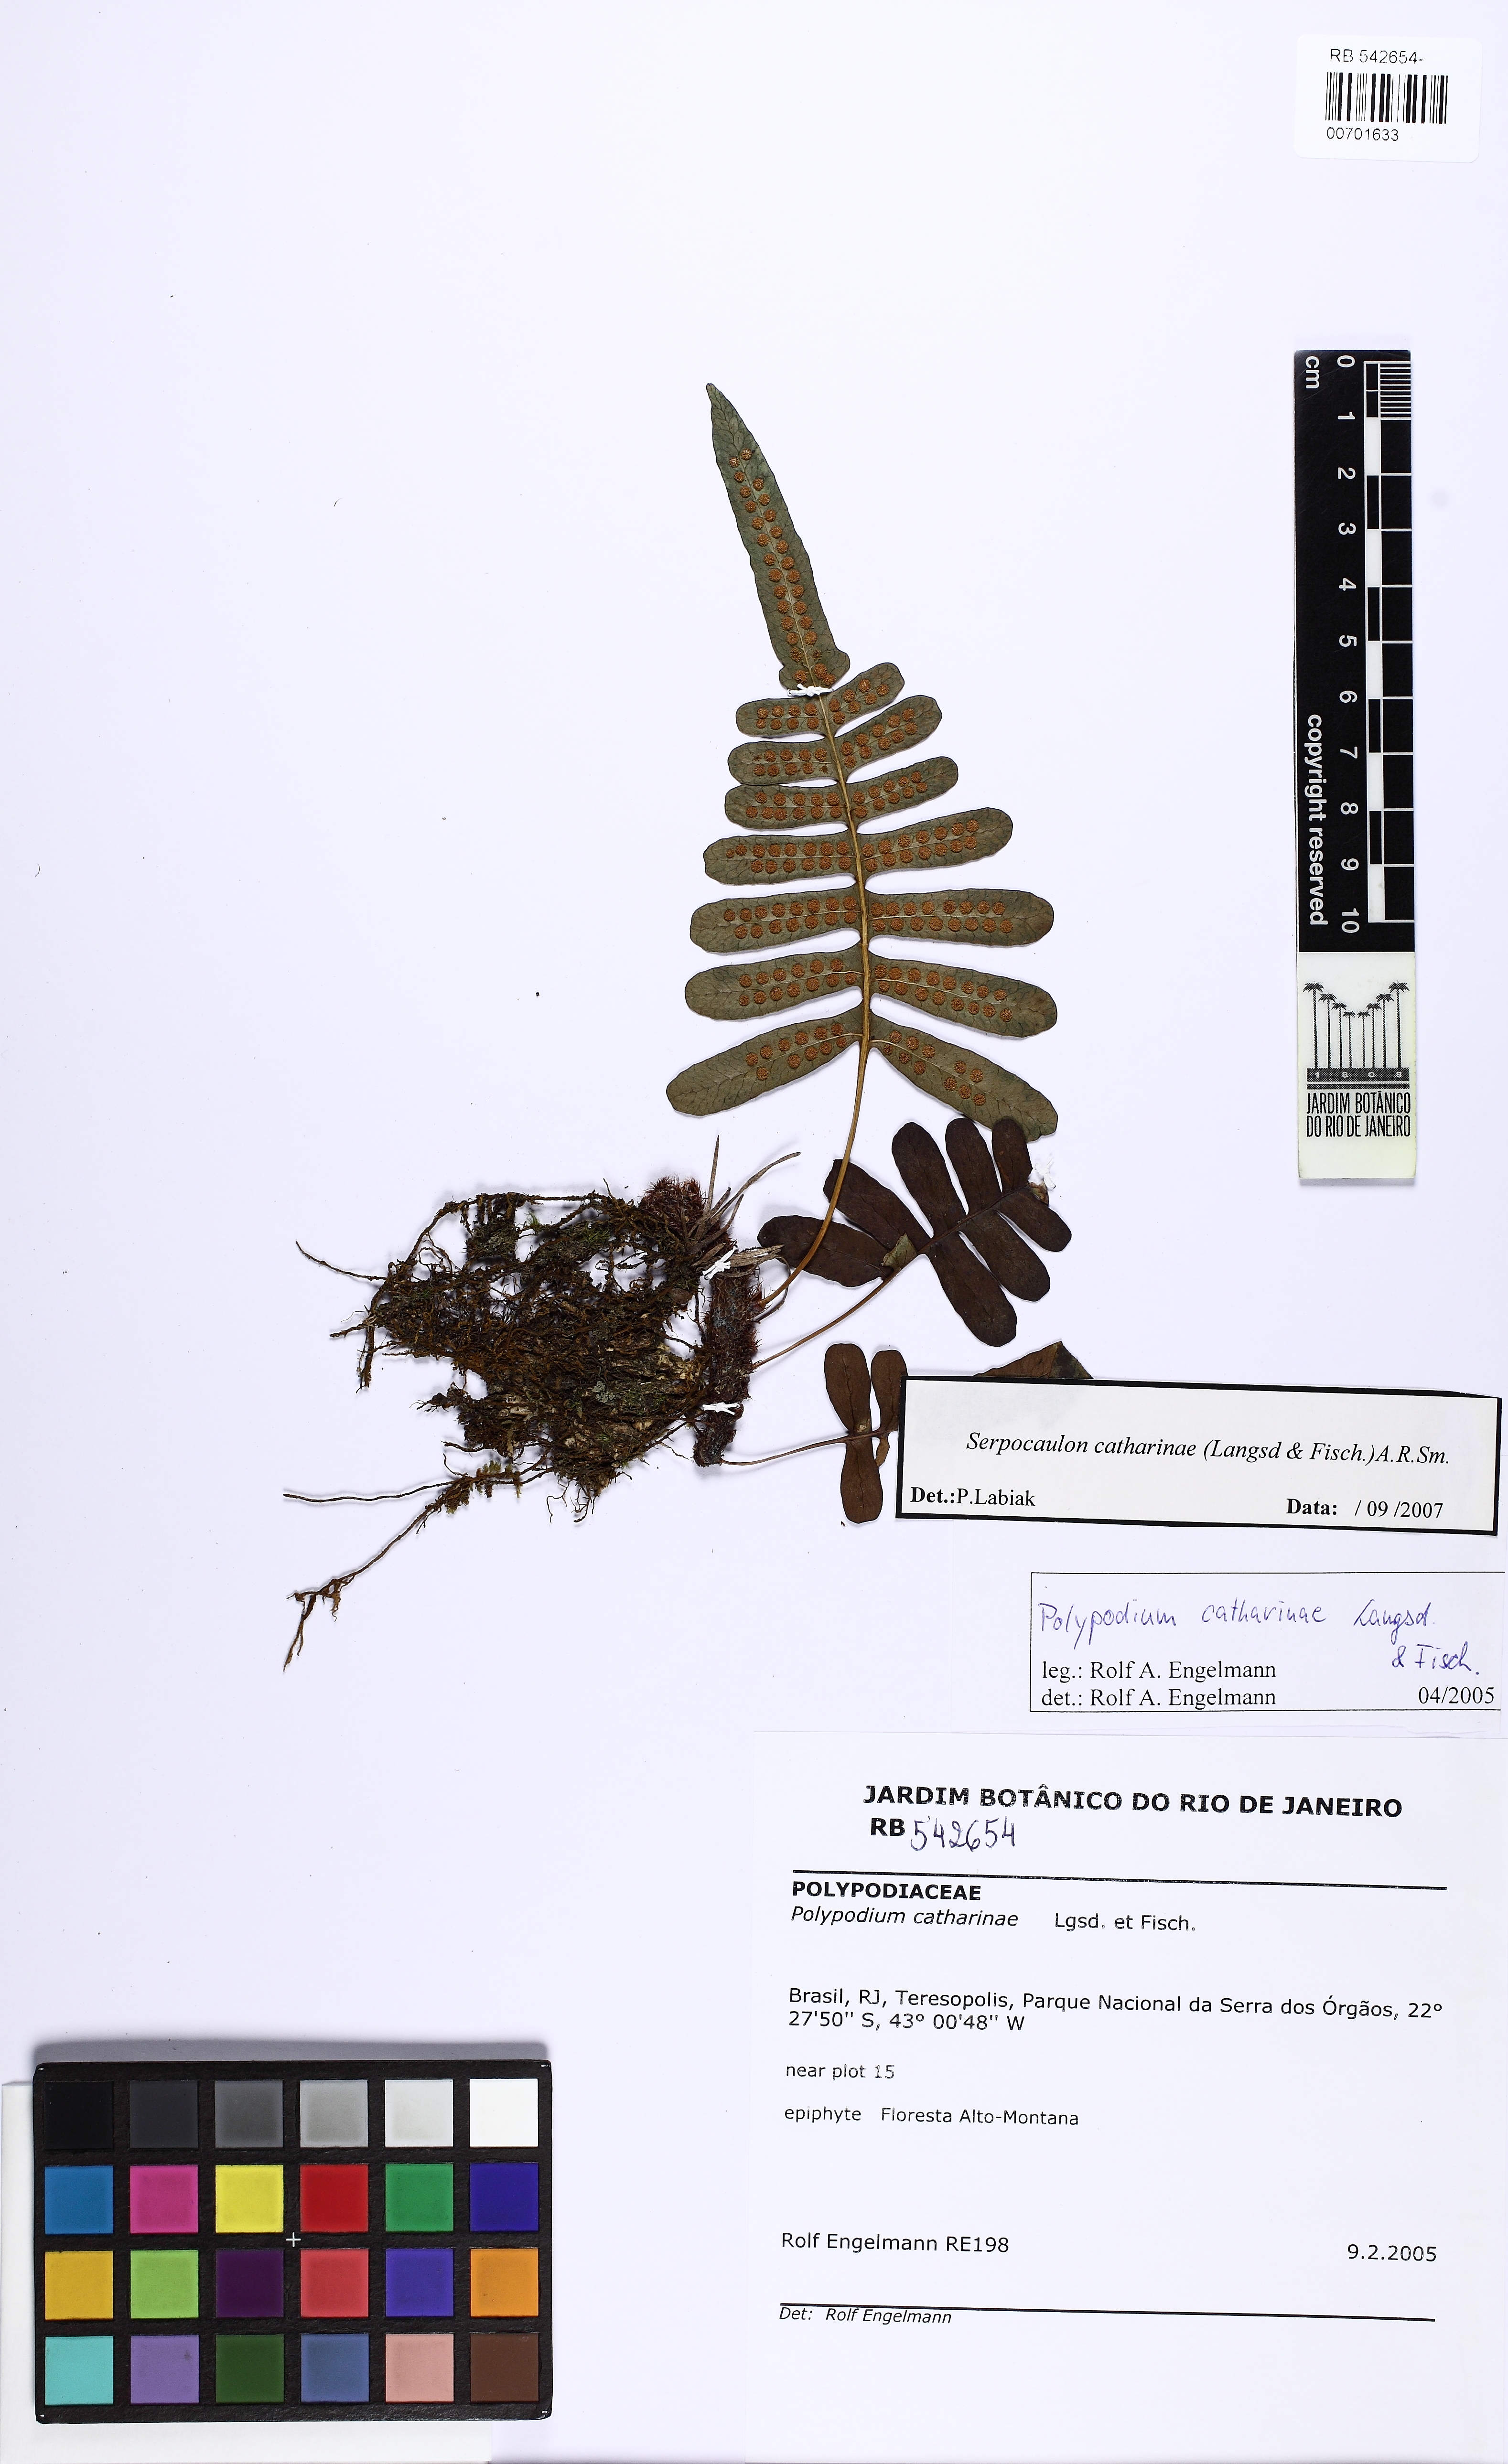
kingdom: Plantae
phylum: Tracheophyta
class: Polypodiopsida
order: Polypodiales
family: Polypodiaceae
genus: Serpocaulon
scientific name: Serpocaulon catharinae
